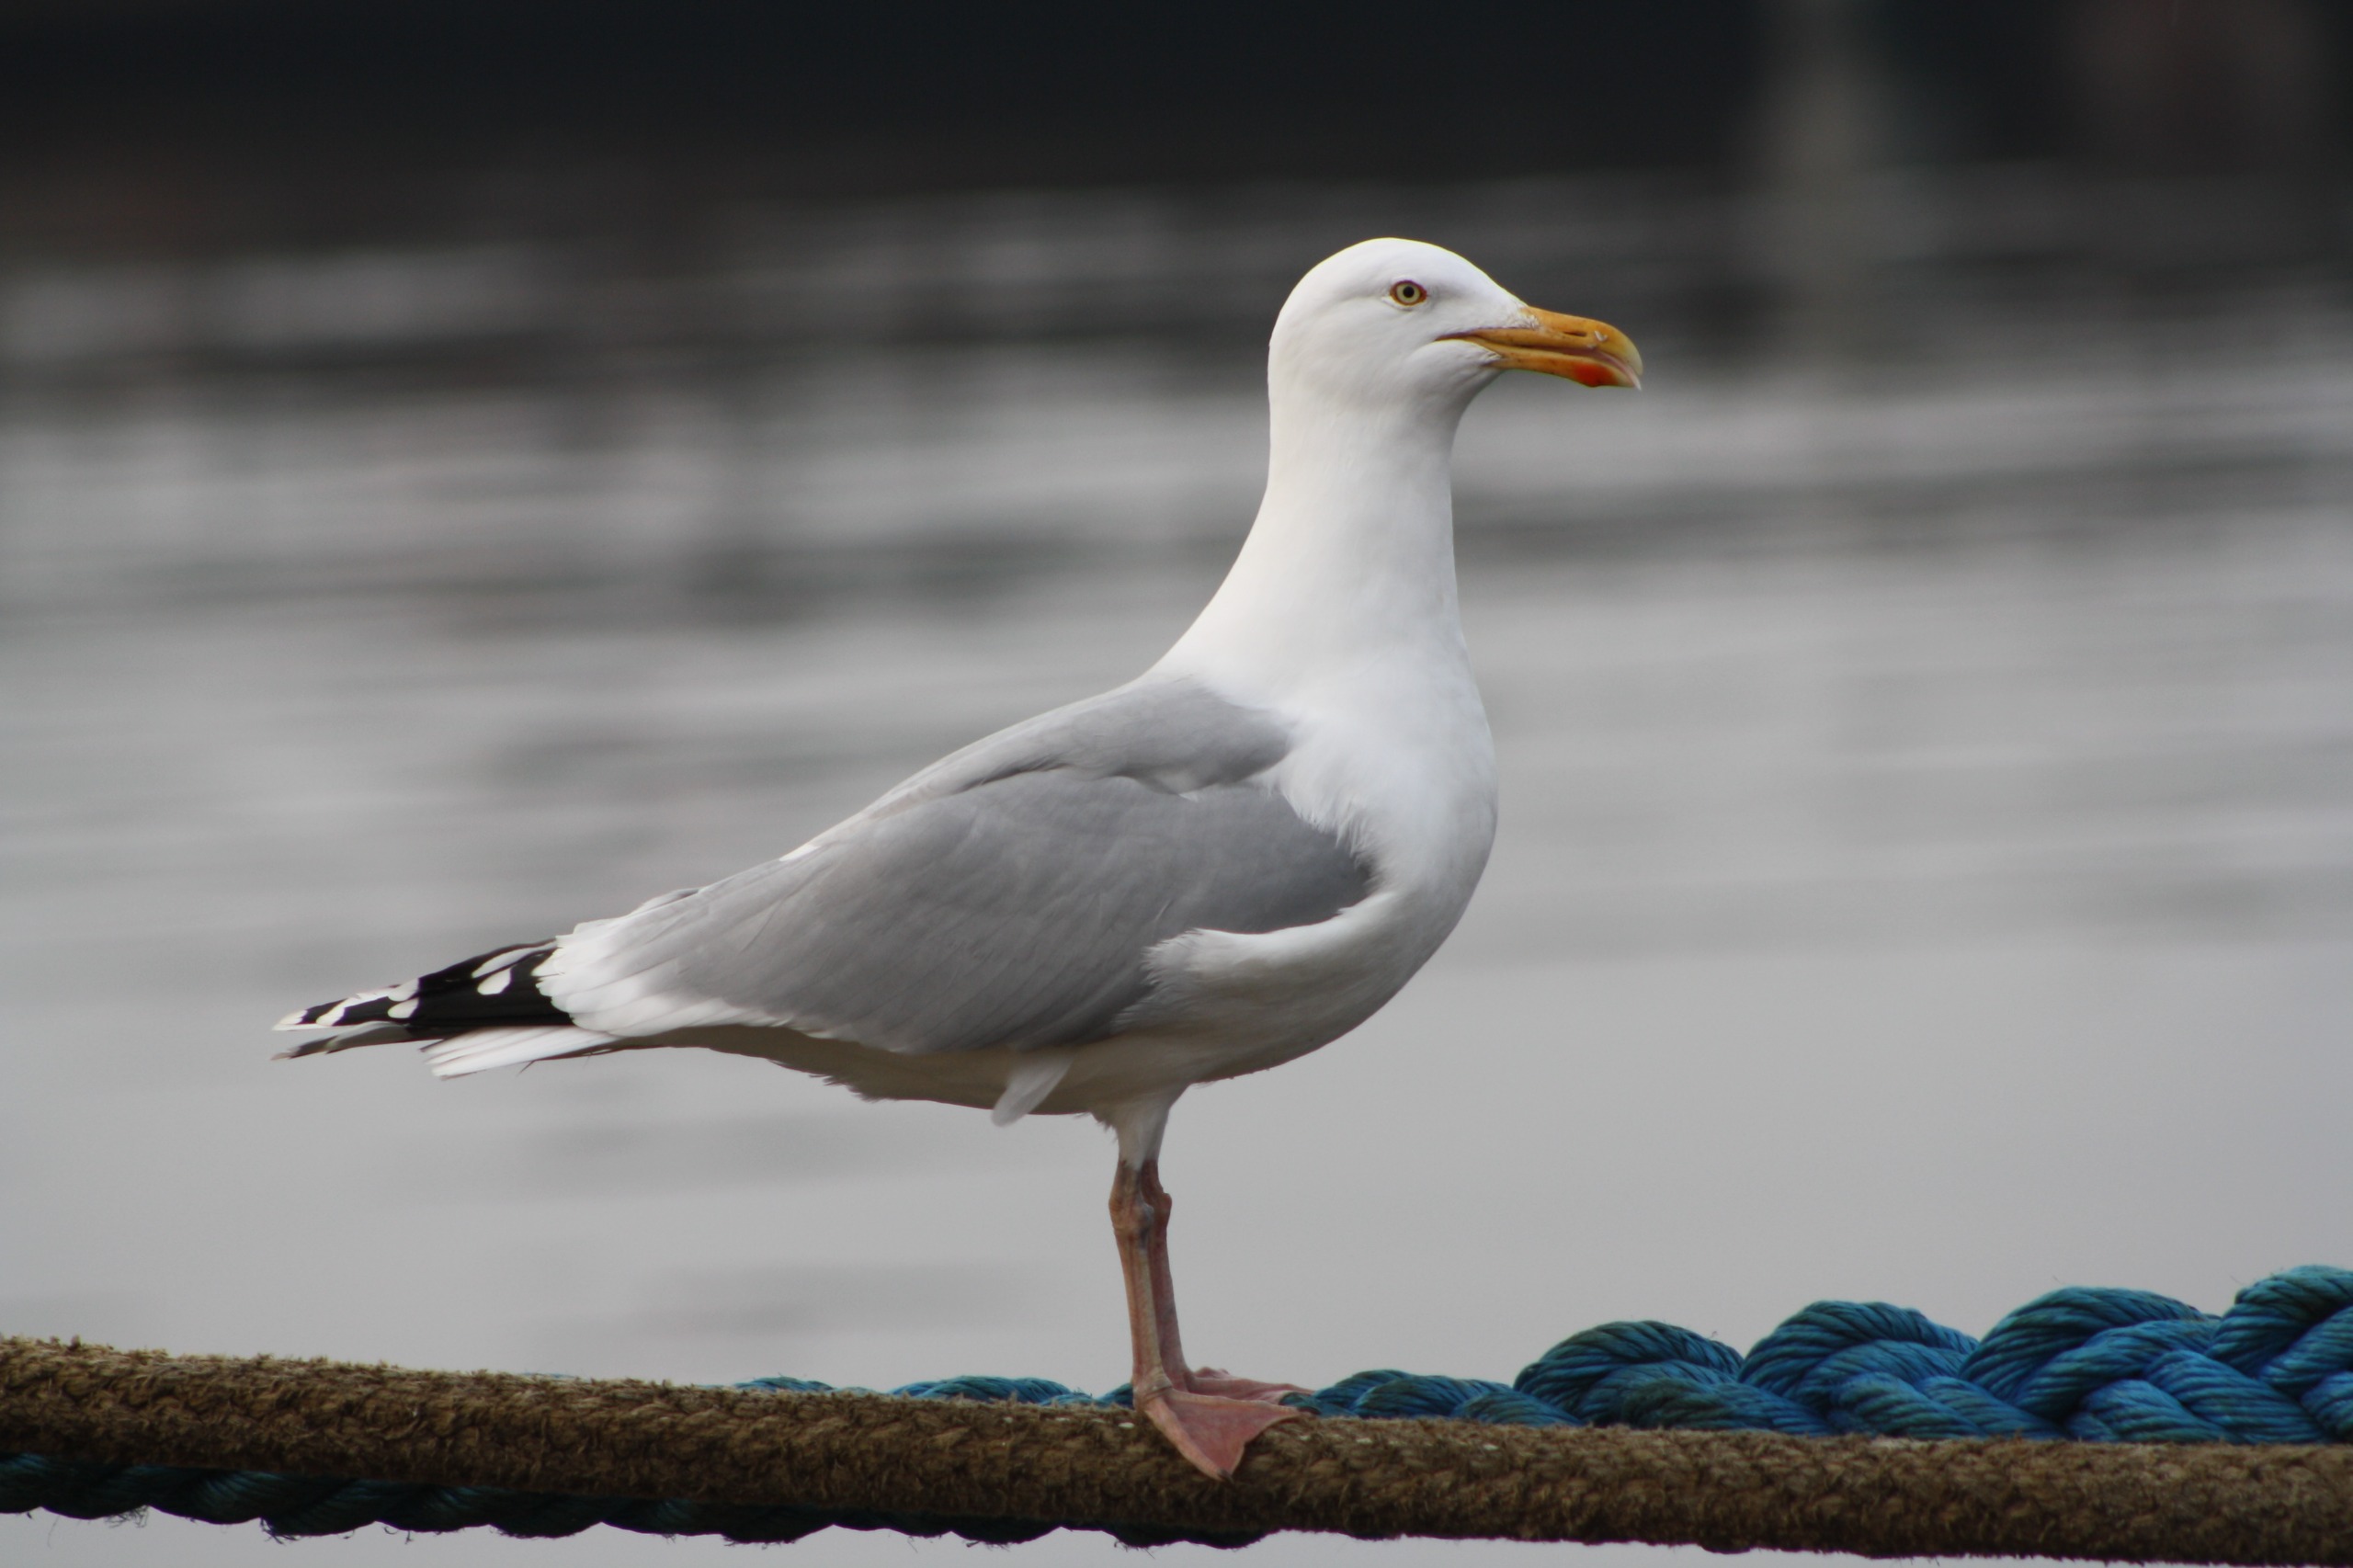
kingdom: Animalia
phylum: Chordata
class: Aves
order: Charadriiformes
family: Laridae
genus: Larus
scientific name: Larus argentatus
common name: Sølvmåge
